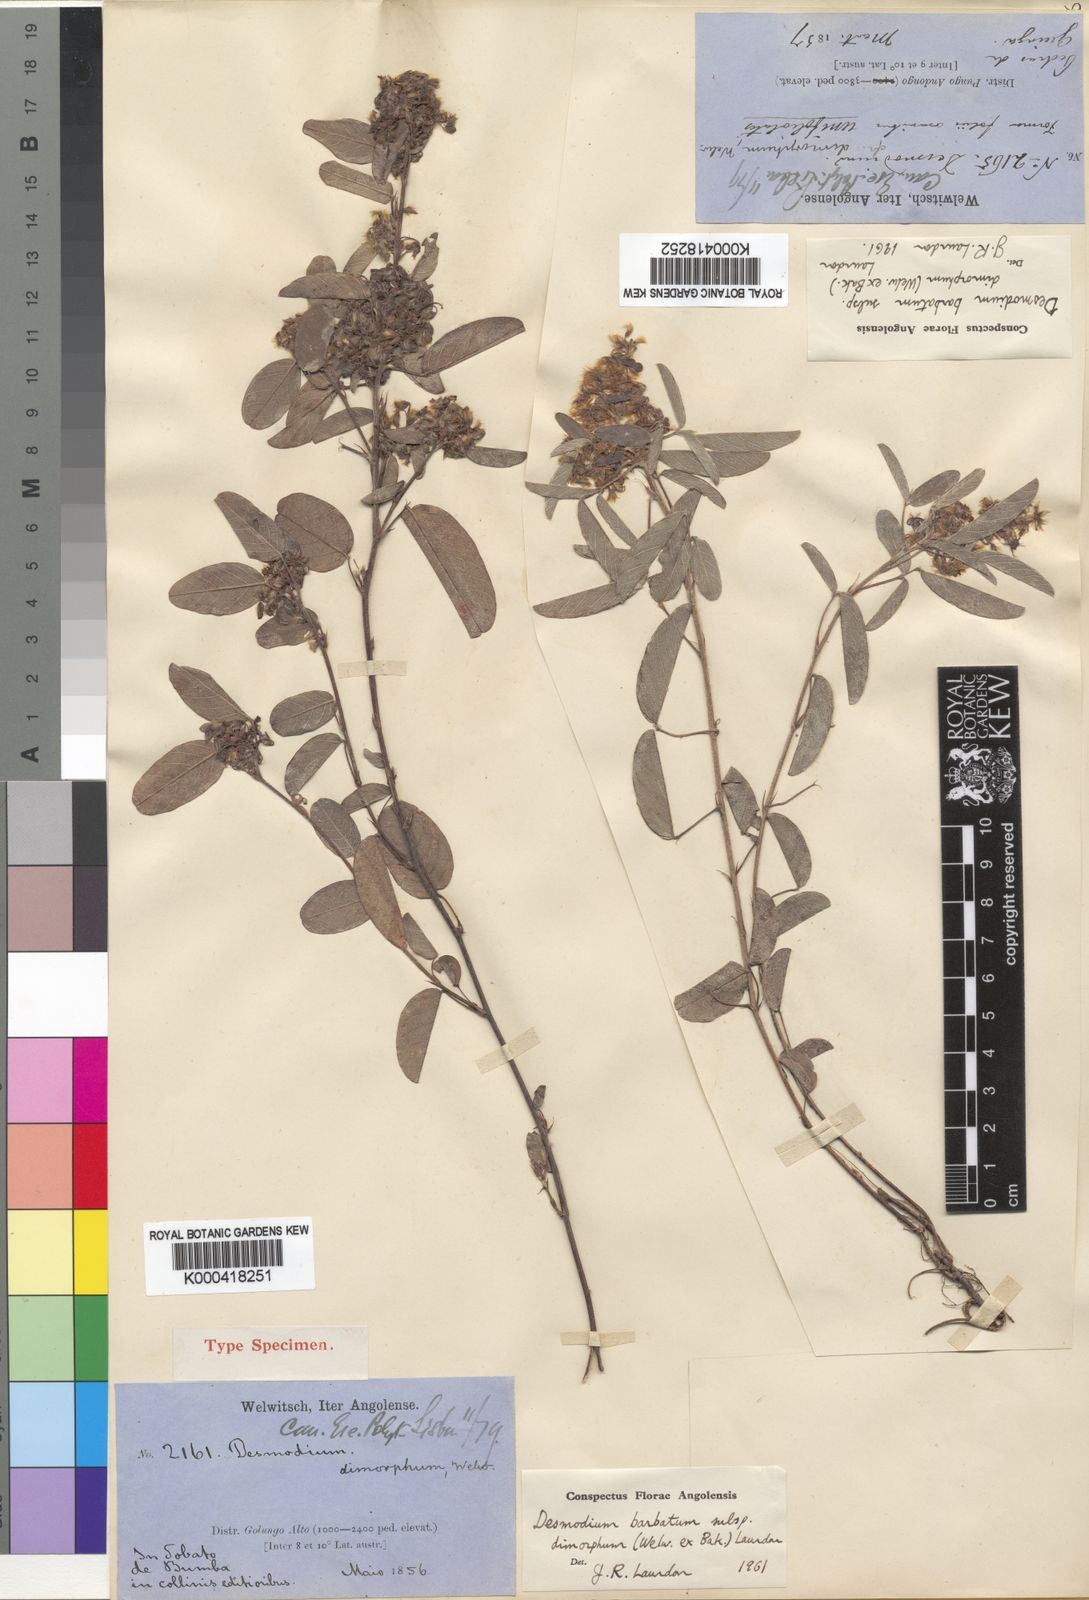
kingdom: Plantae
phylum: Tracheophyta
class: Magnoliopsida
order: Fabales
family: Fabaceae
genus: Grona
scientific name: Grona barbata
